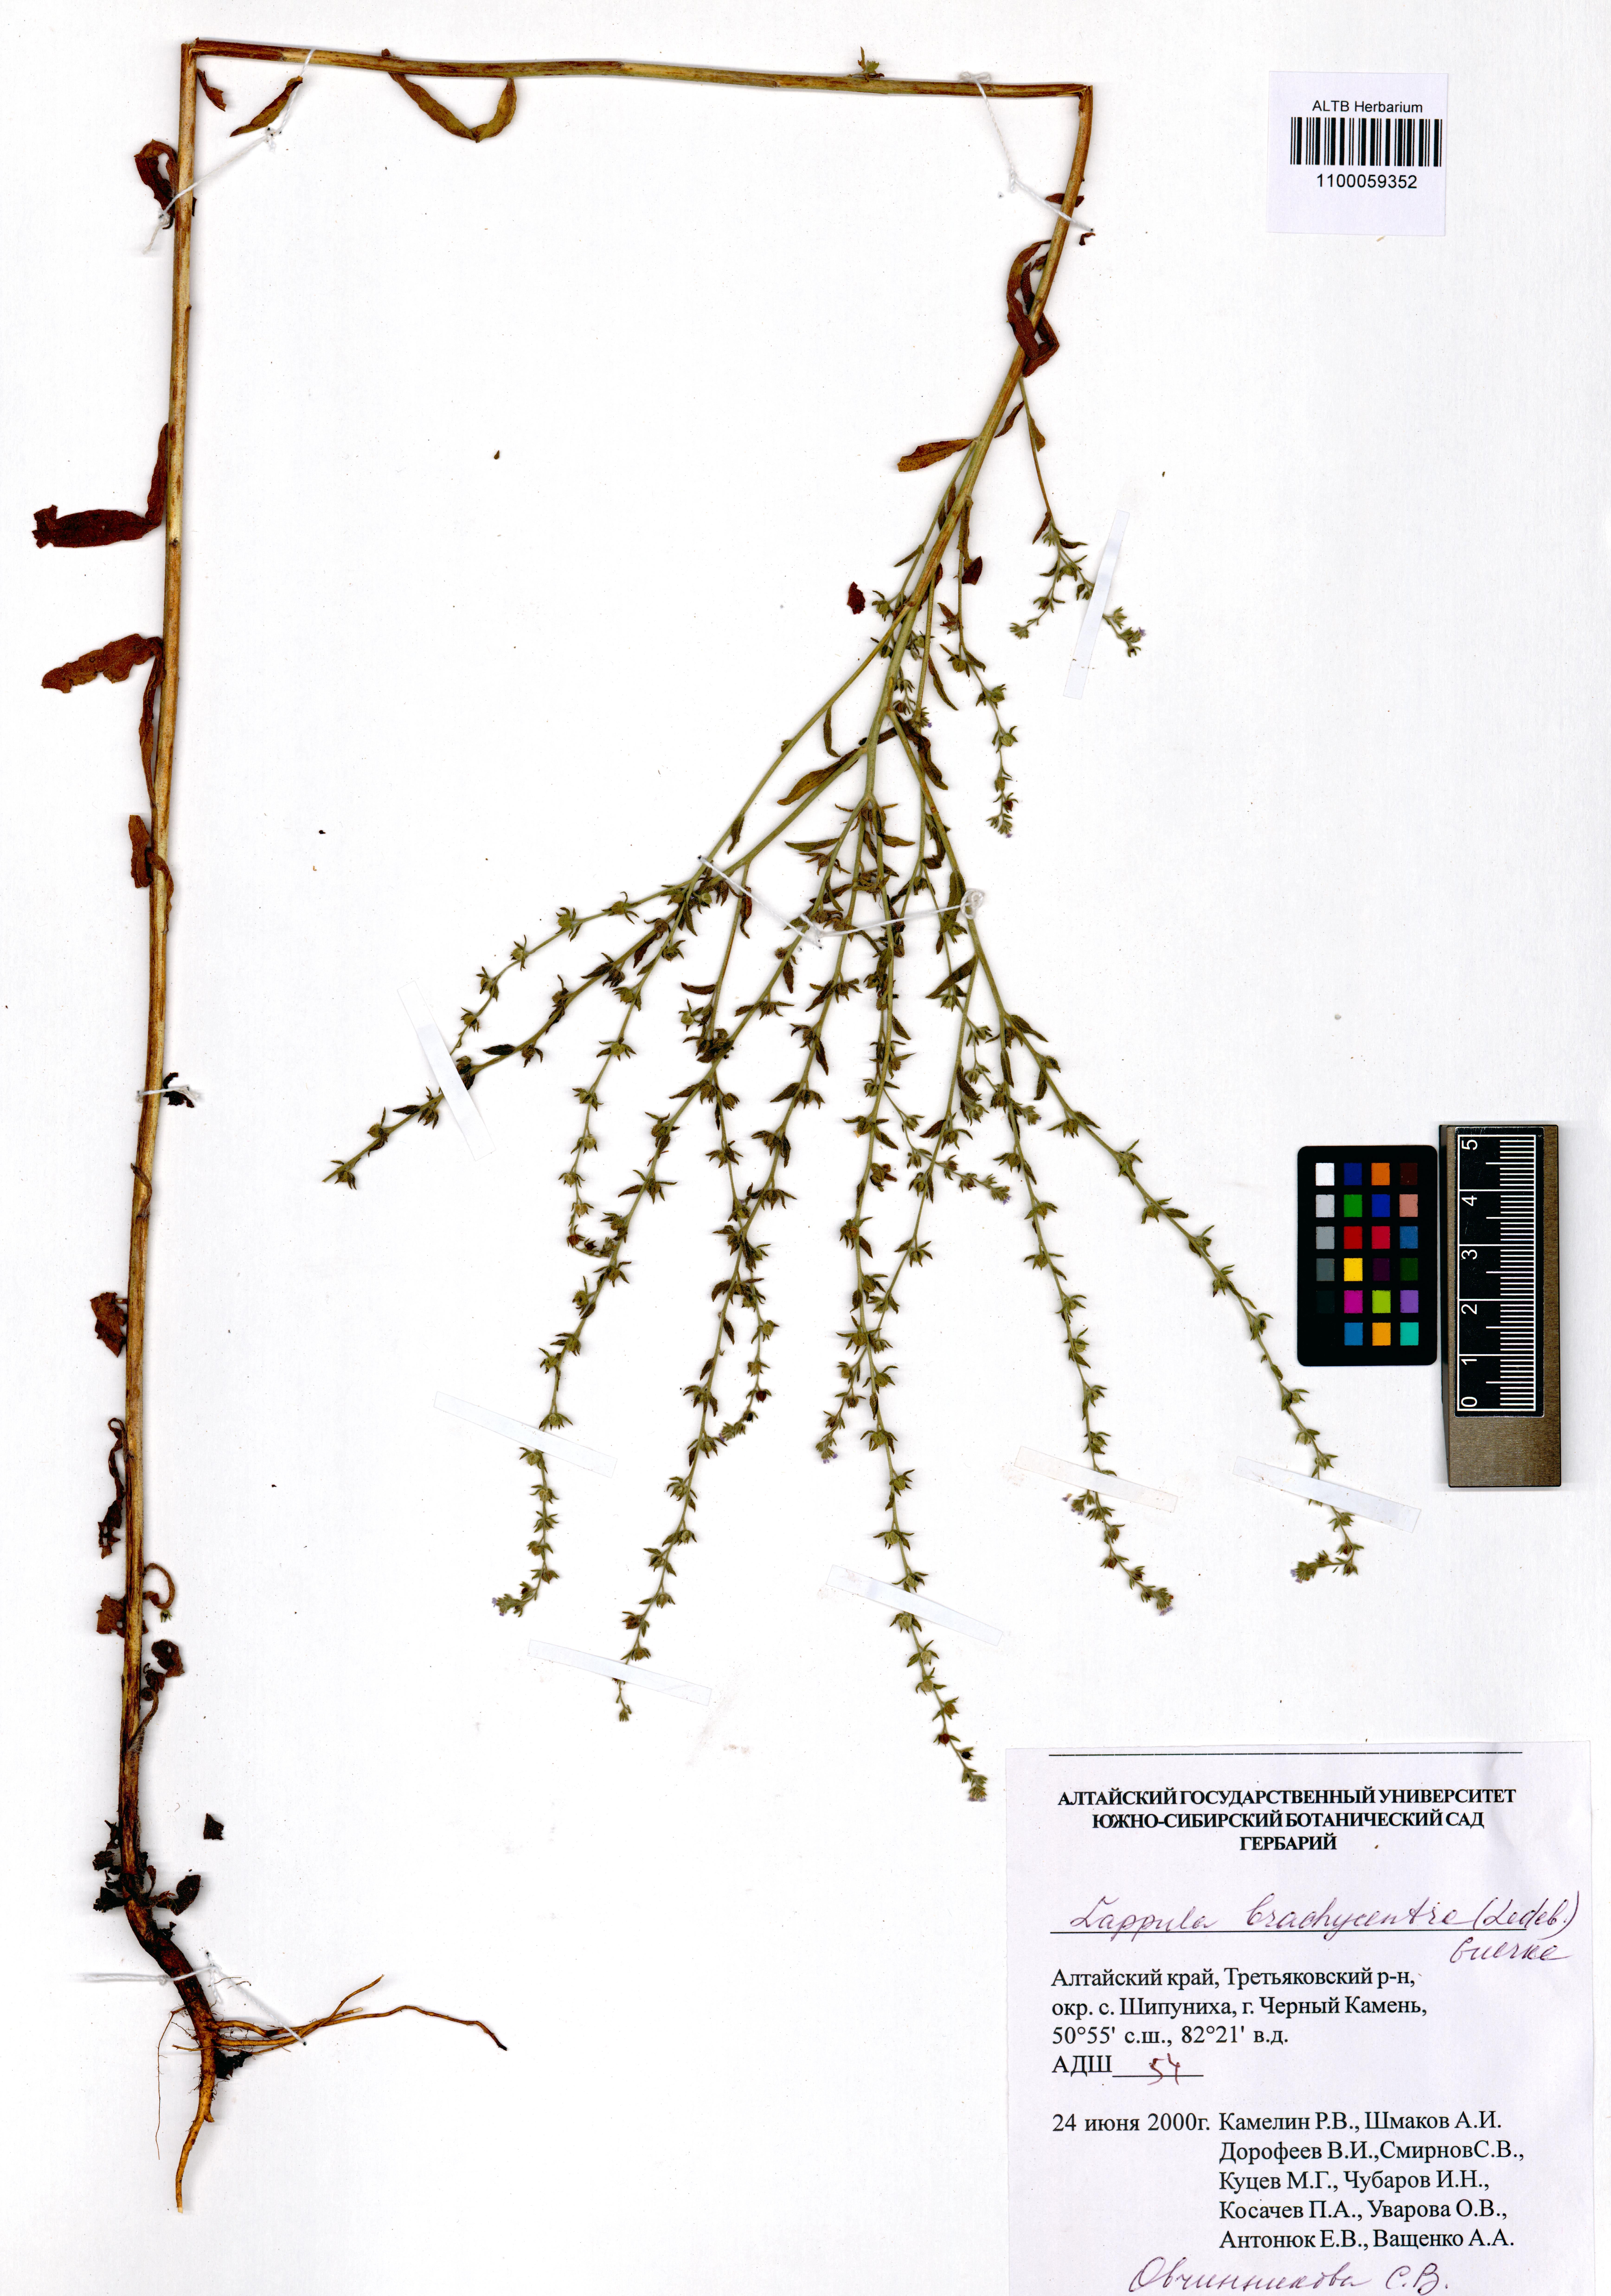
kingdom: Plantae
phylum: Tracheophyta
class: Magnoliopsida
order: Boraginales
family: Boraginaceae
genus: Lappula
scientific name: Lappula brachycentra
